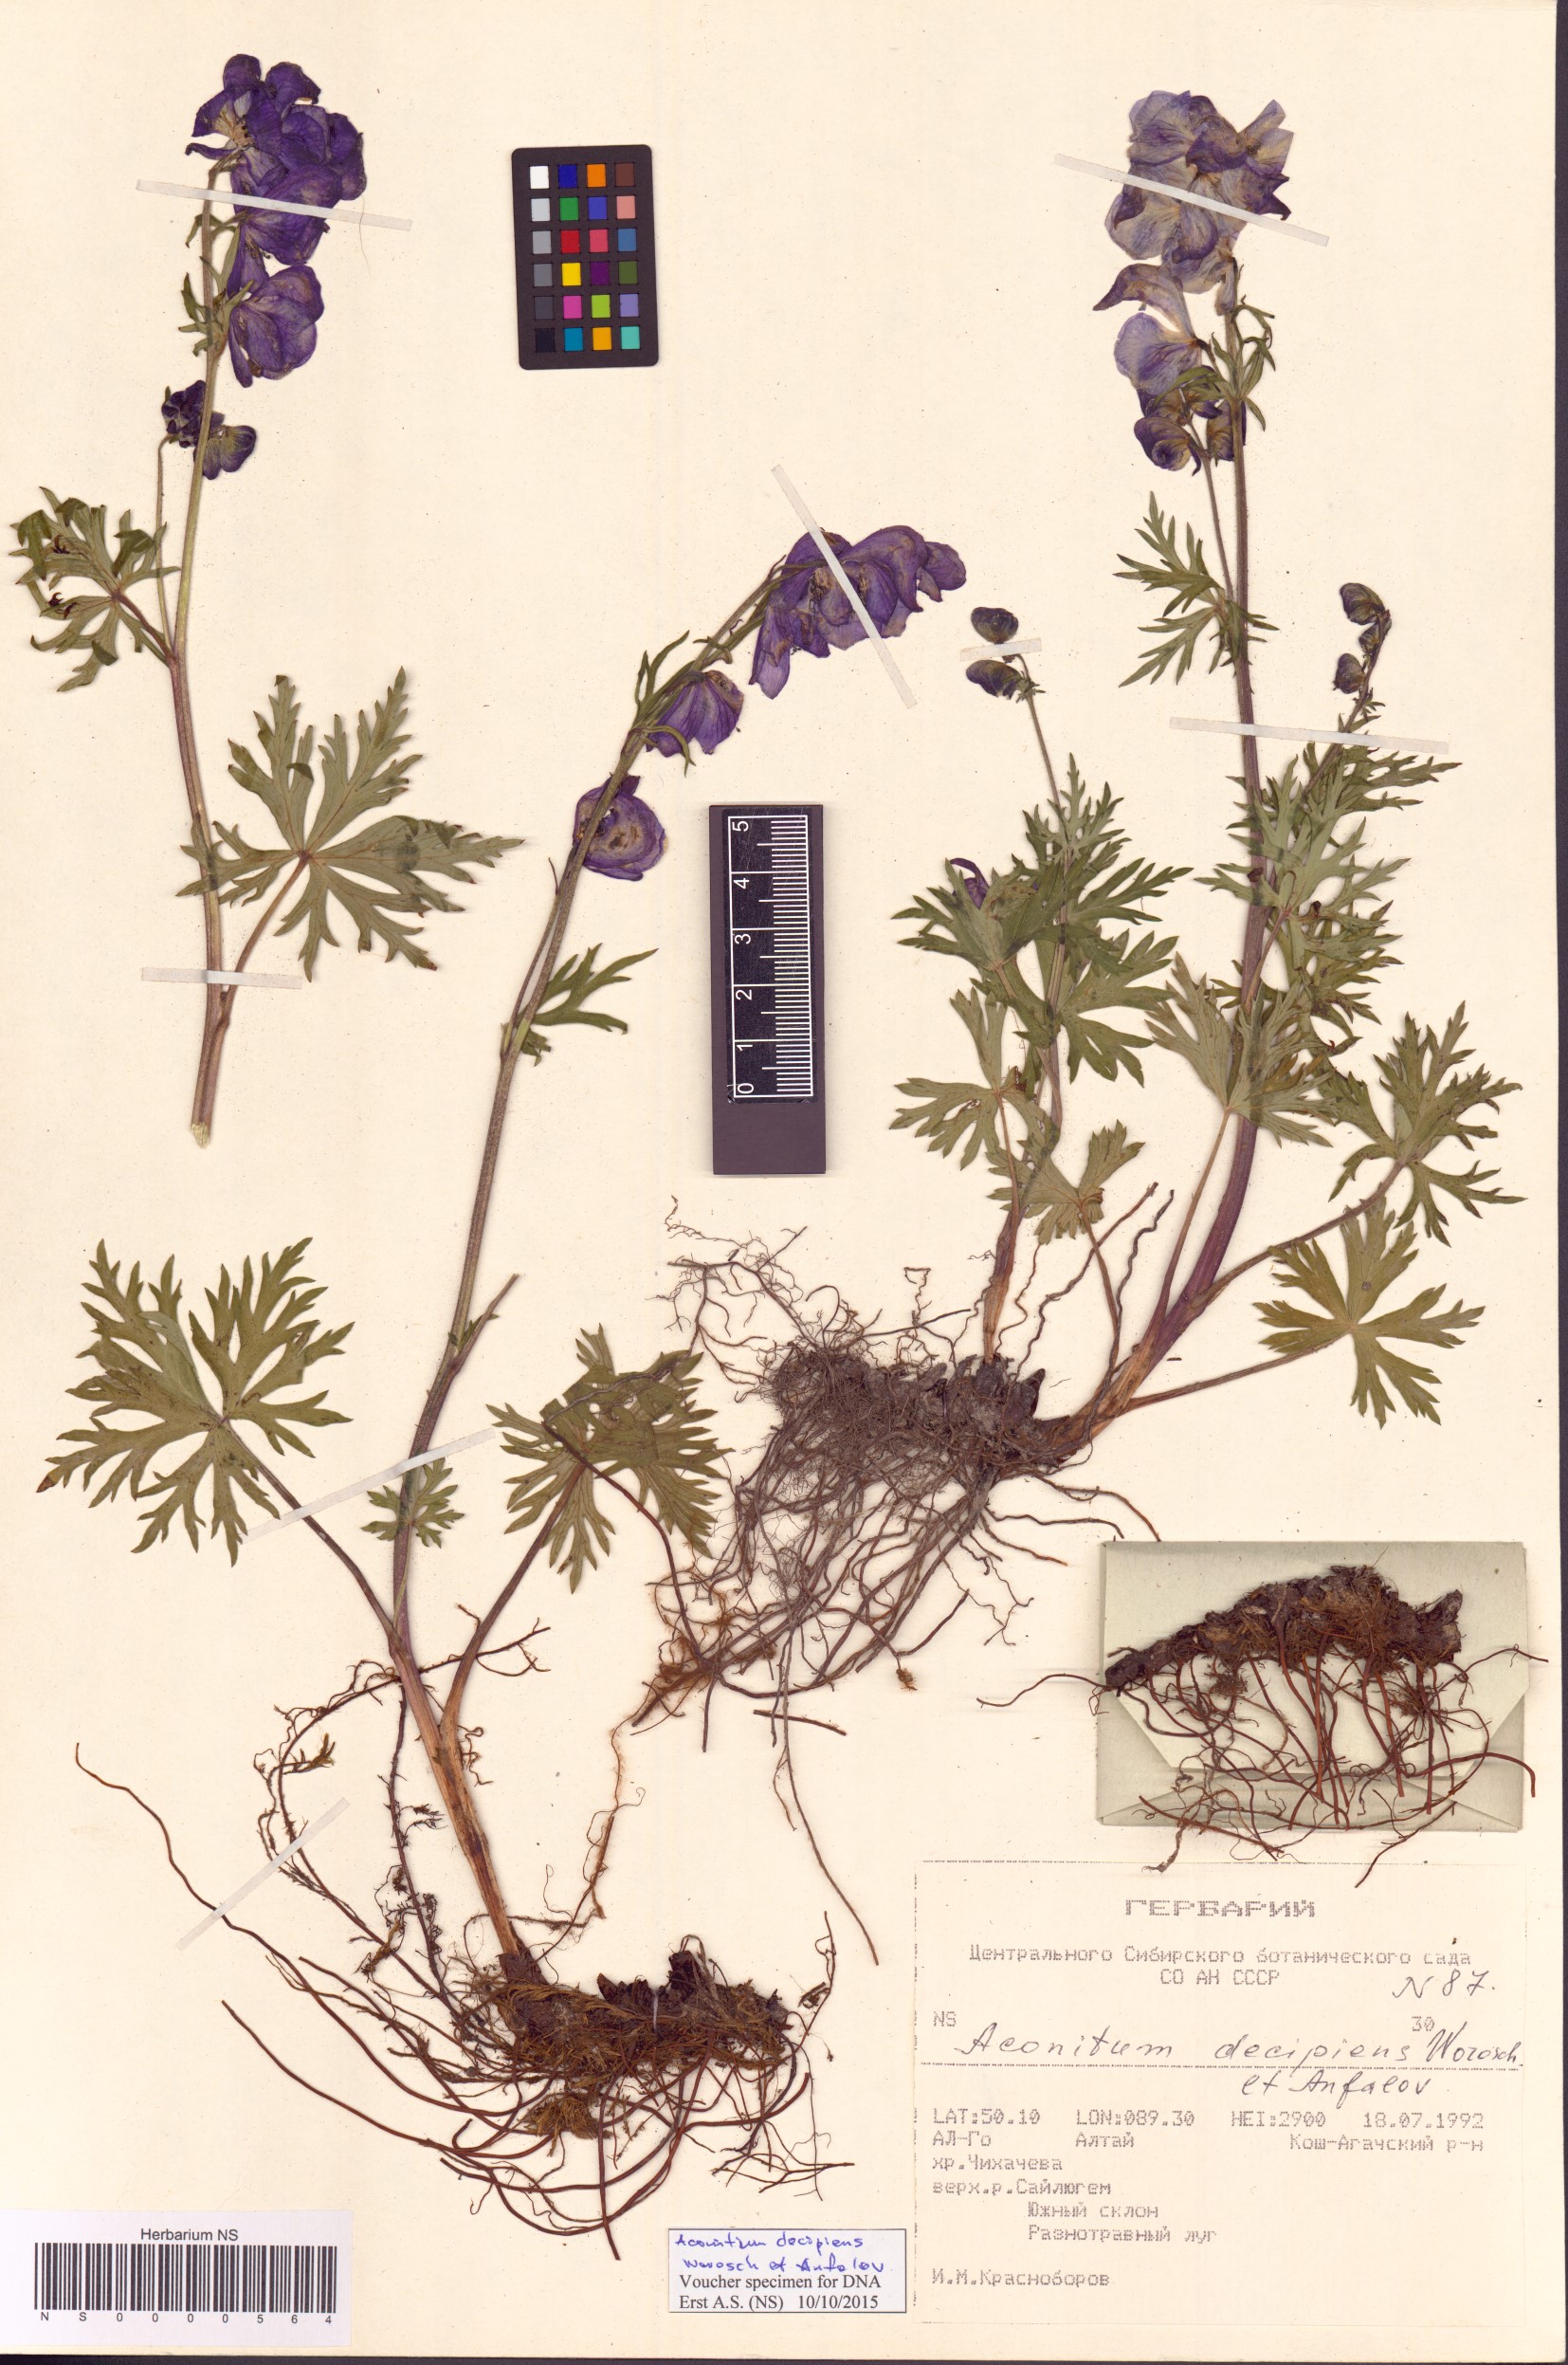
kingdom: Plantae
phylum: Tracheophyta
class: Magnoliopsida
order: Ranunculales
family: Ranunculaceae
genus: Aconitum
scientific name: Aconitum decipiens
